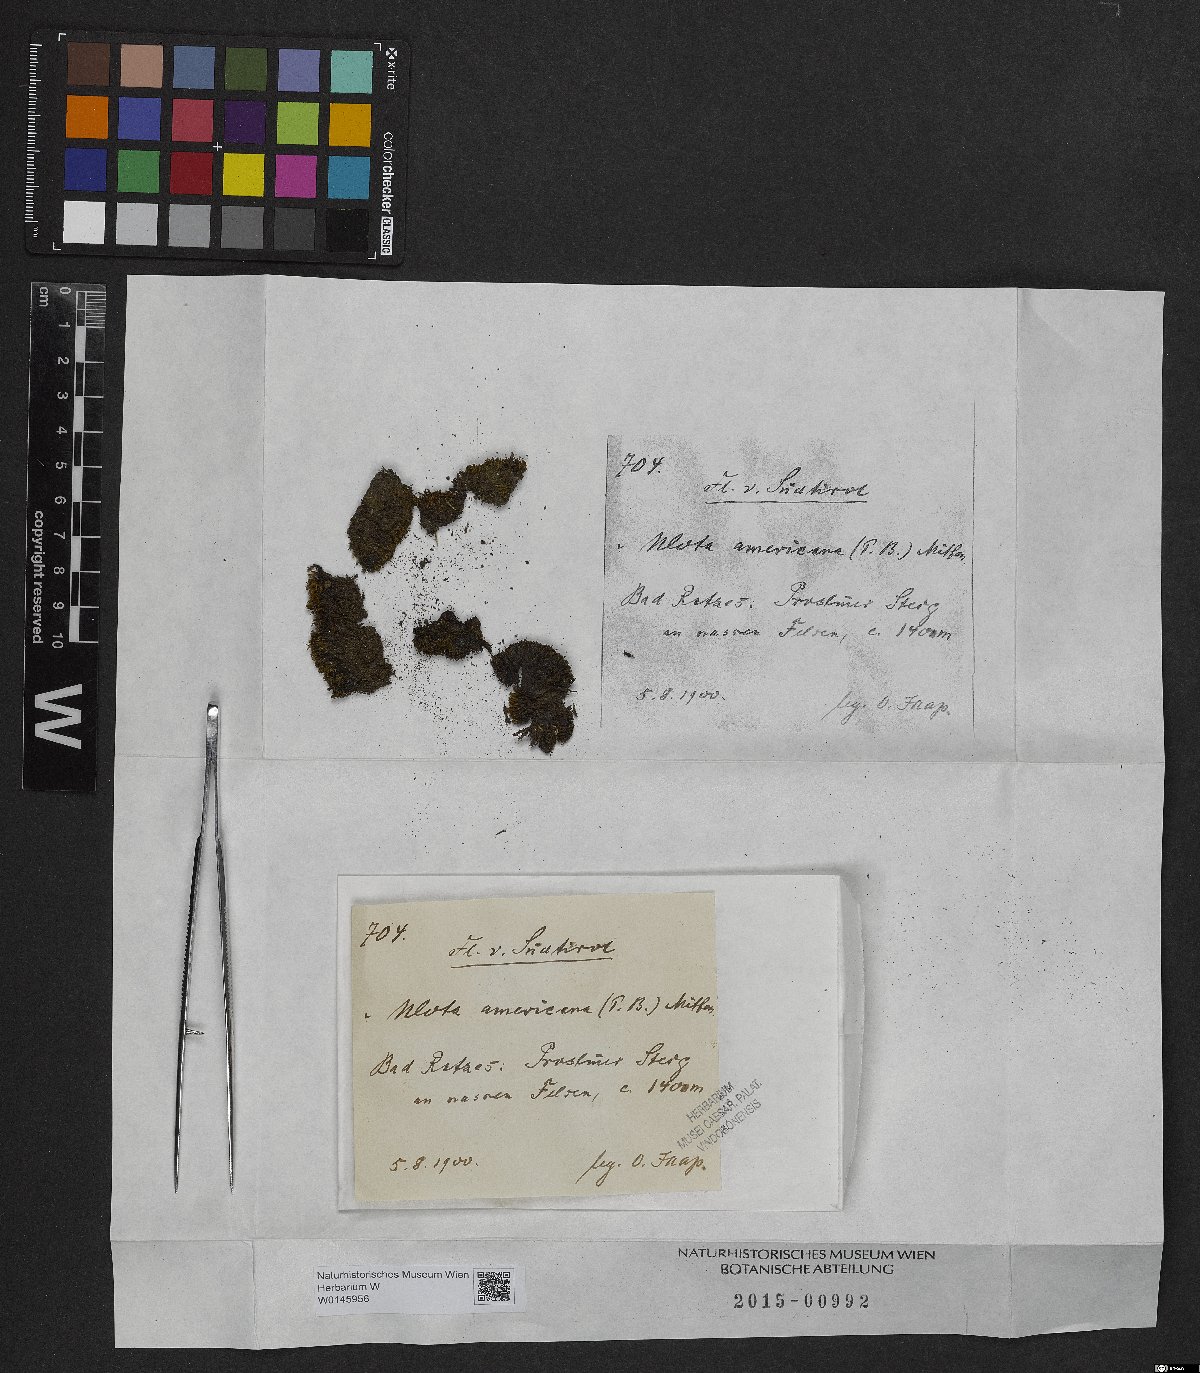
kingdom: Plantae
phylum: Bryophyta
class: Bryopsida
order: Orthotrichales
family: Orthotrichaceae
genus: Ulota
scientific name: Ulota hutchinsiae
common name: Hutchins' pincushion
